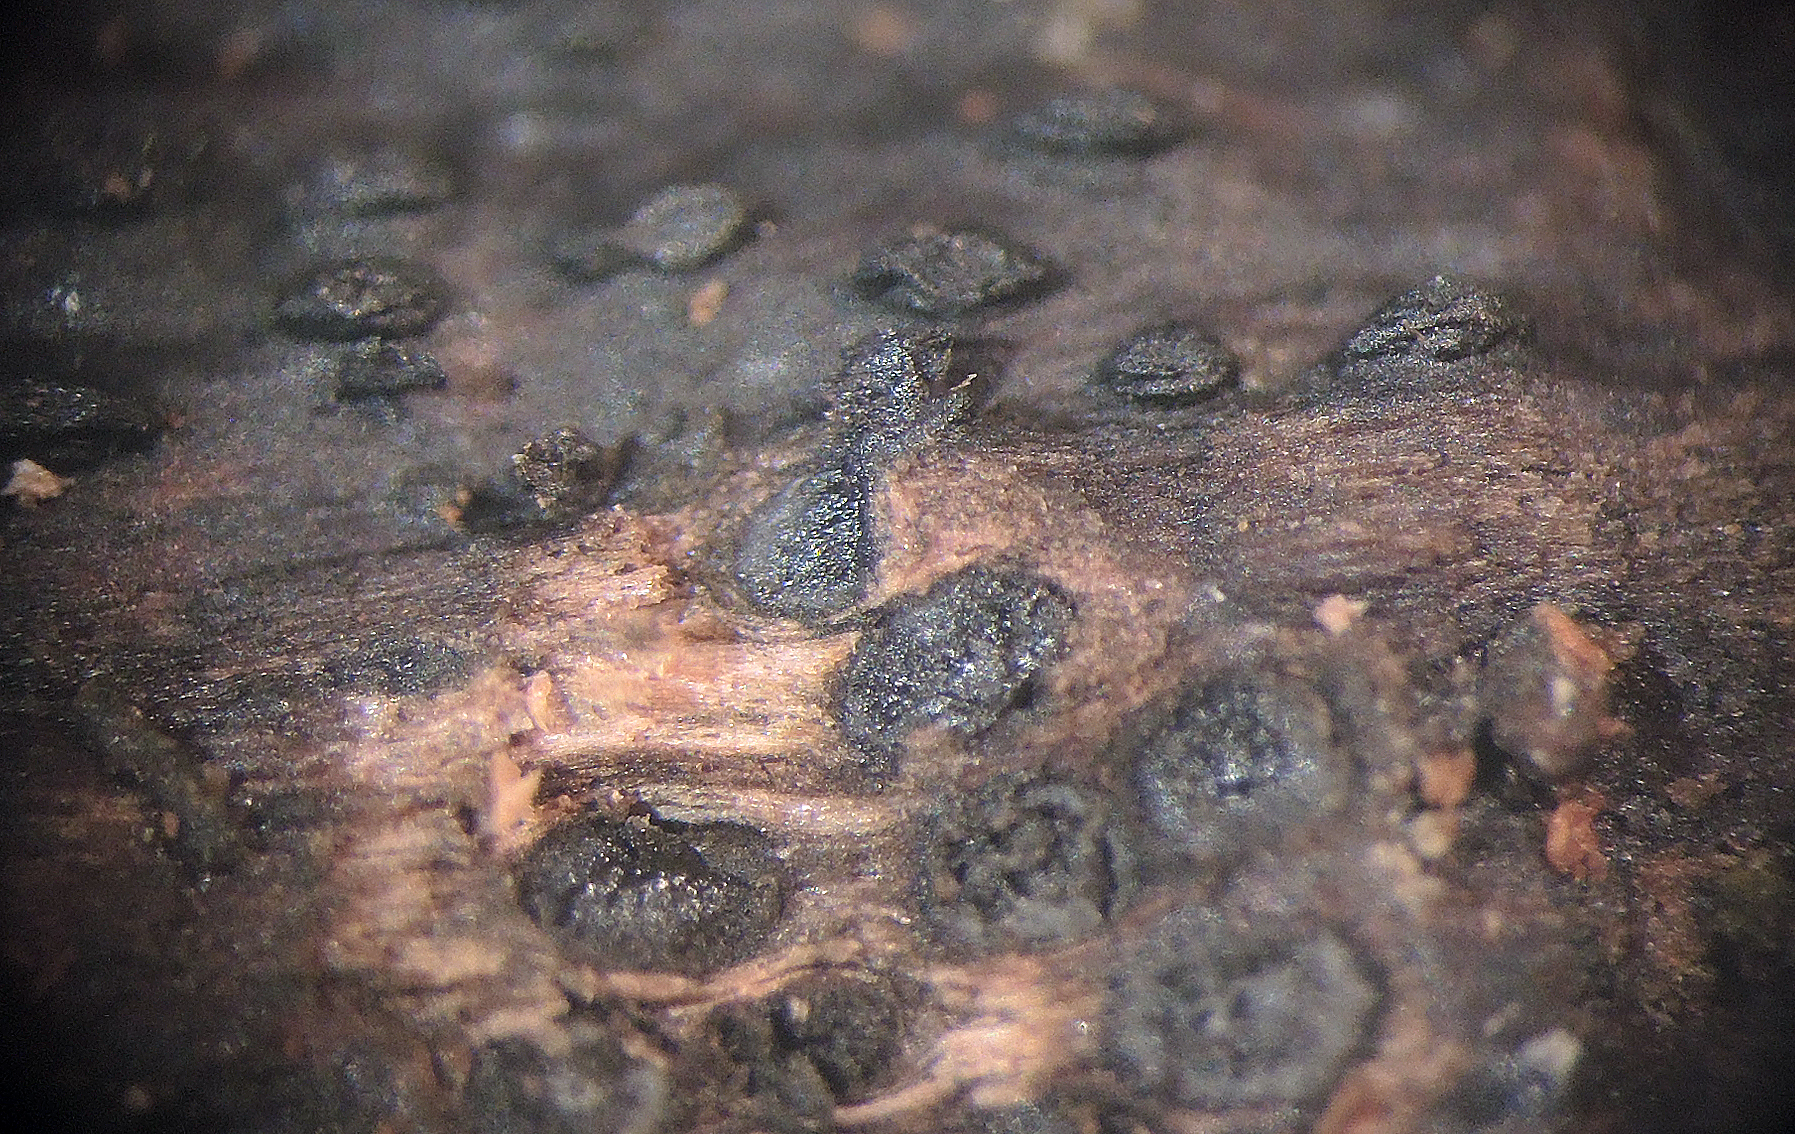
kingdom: Fungi
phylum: Ascomycota
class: Dothideomycetes
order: Pleosporales
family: Thyridariaceae
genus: Thyridaria
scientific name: Thyridaria macrostomoides
